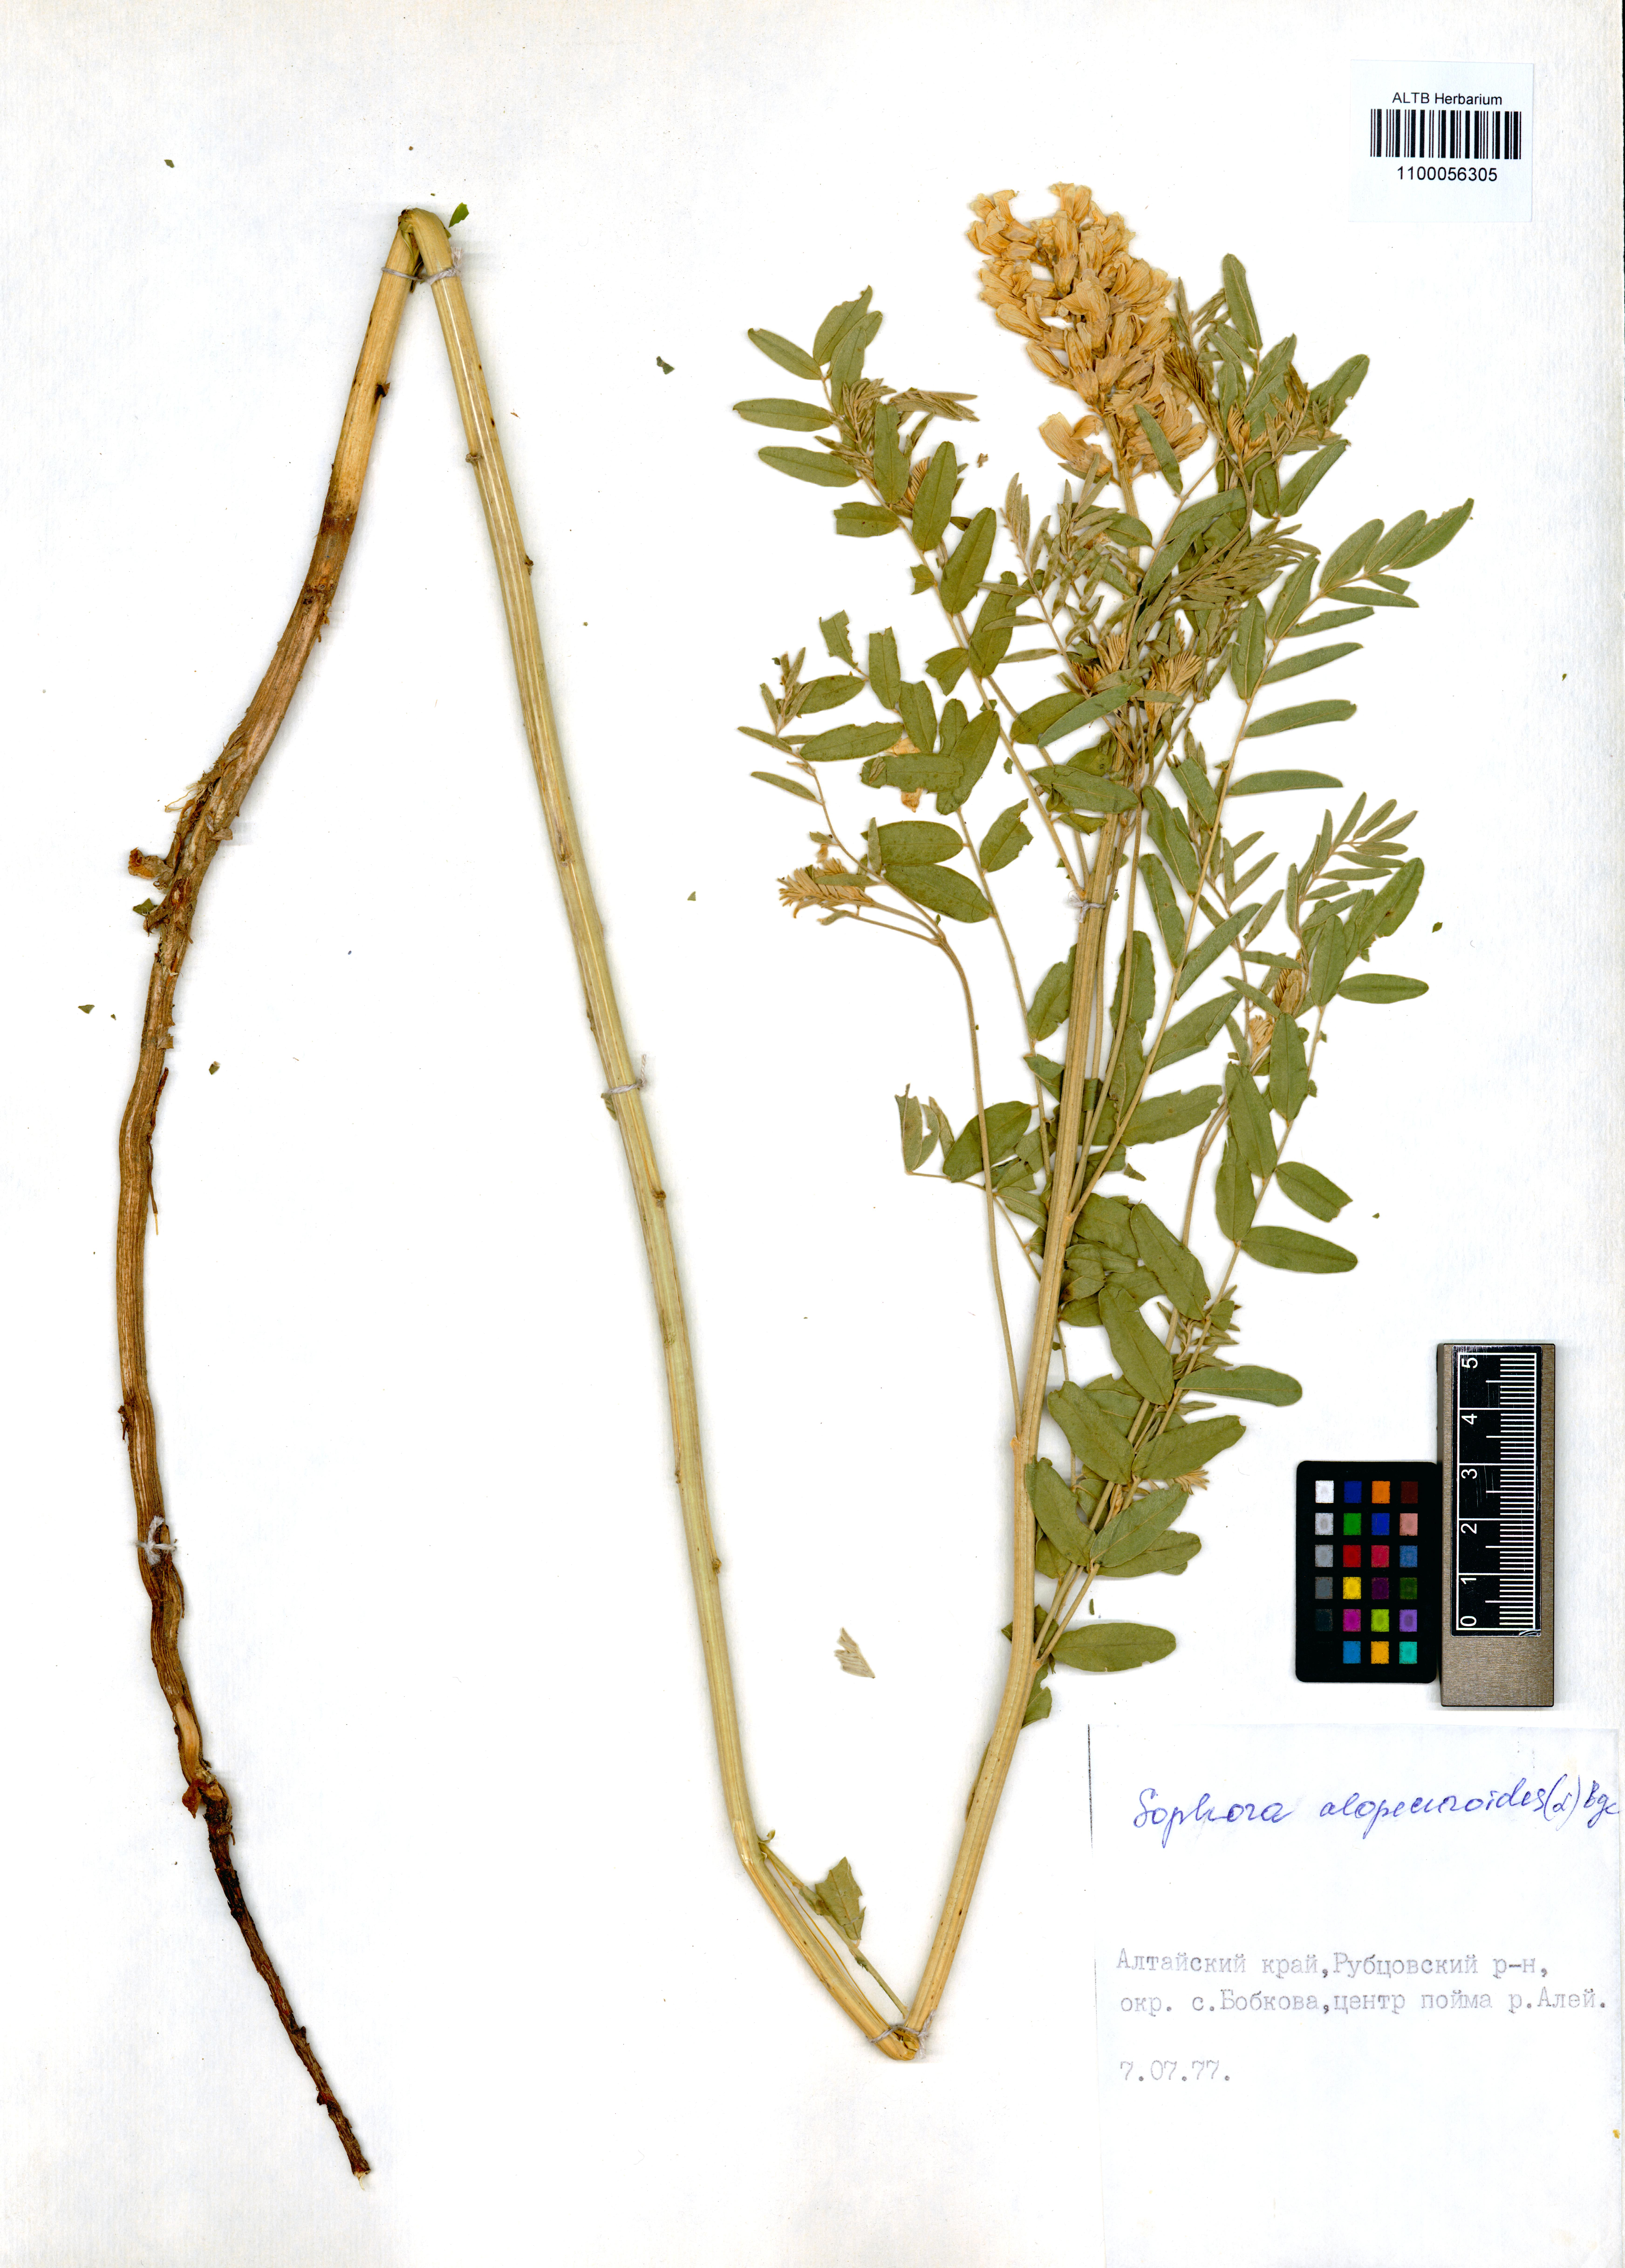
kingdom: Plantae
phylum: Tracheophyta
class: Magnoliopsida
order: Fabales
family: Fabaceae
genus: Sophora
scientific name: Sophora alopecuroides
